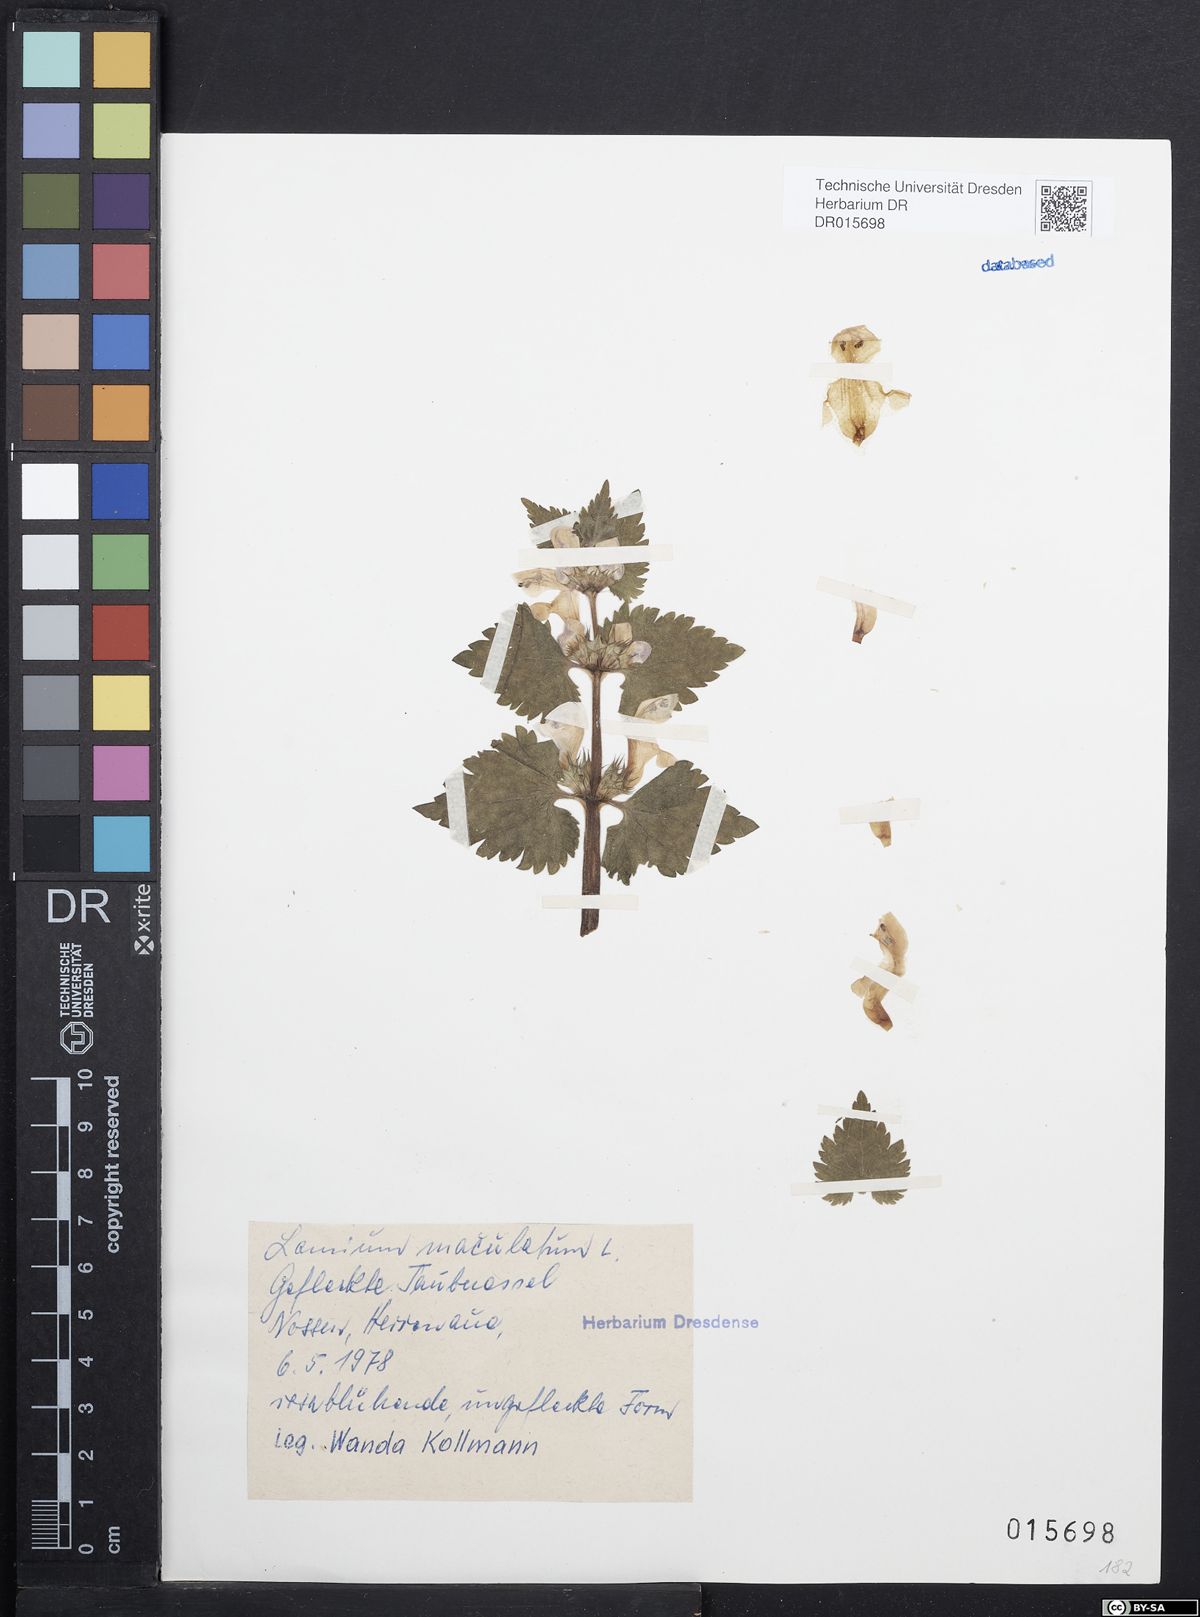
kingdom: Plantae
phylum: Tracheophyta
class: Magnoliopsida
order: Lamiales
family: Lamiaceae
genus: Lamium
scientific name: Lamium maculatum
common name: Spotted dead-nettle
